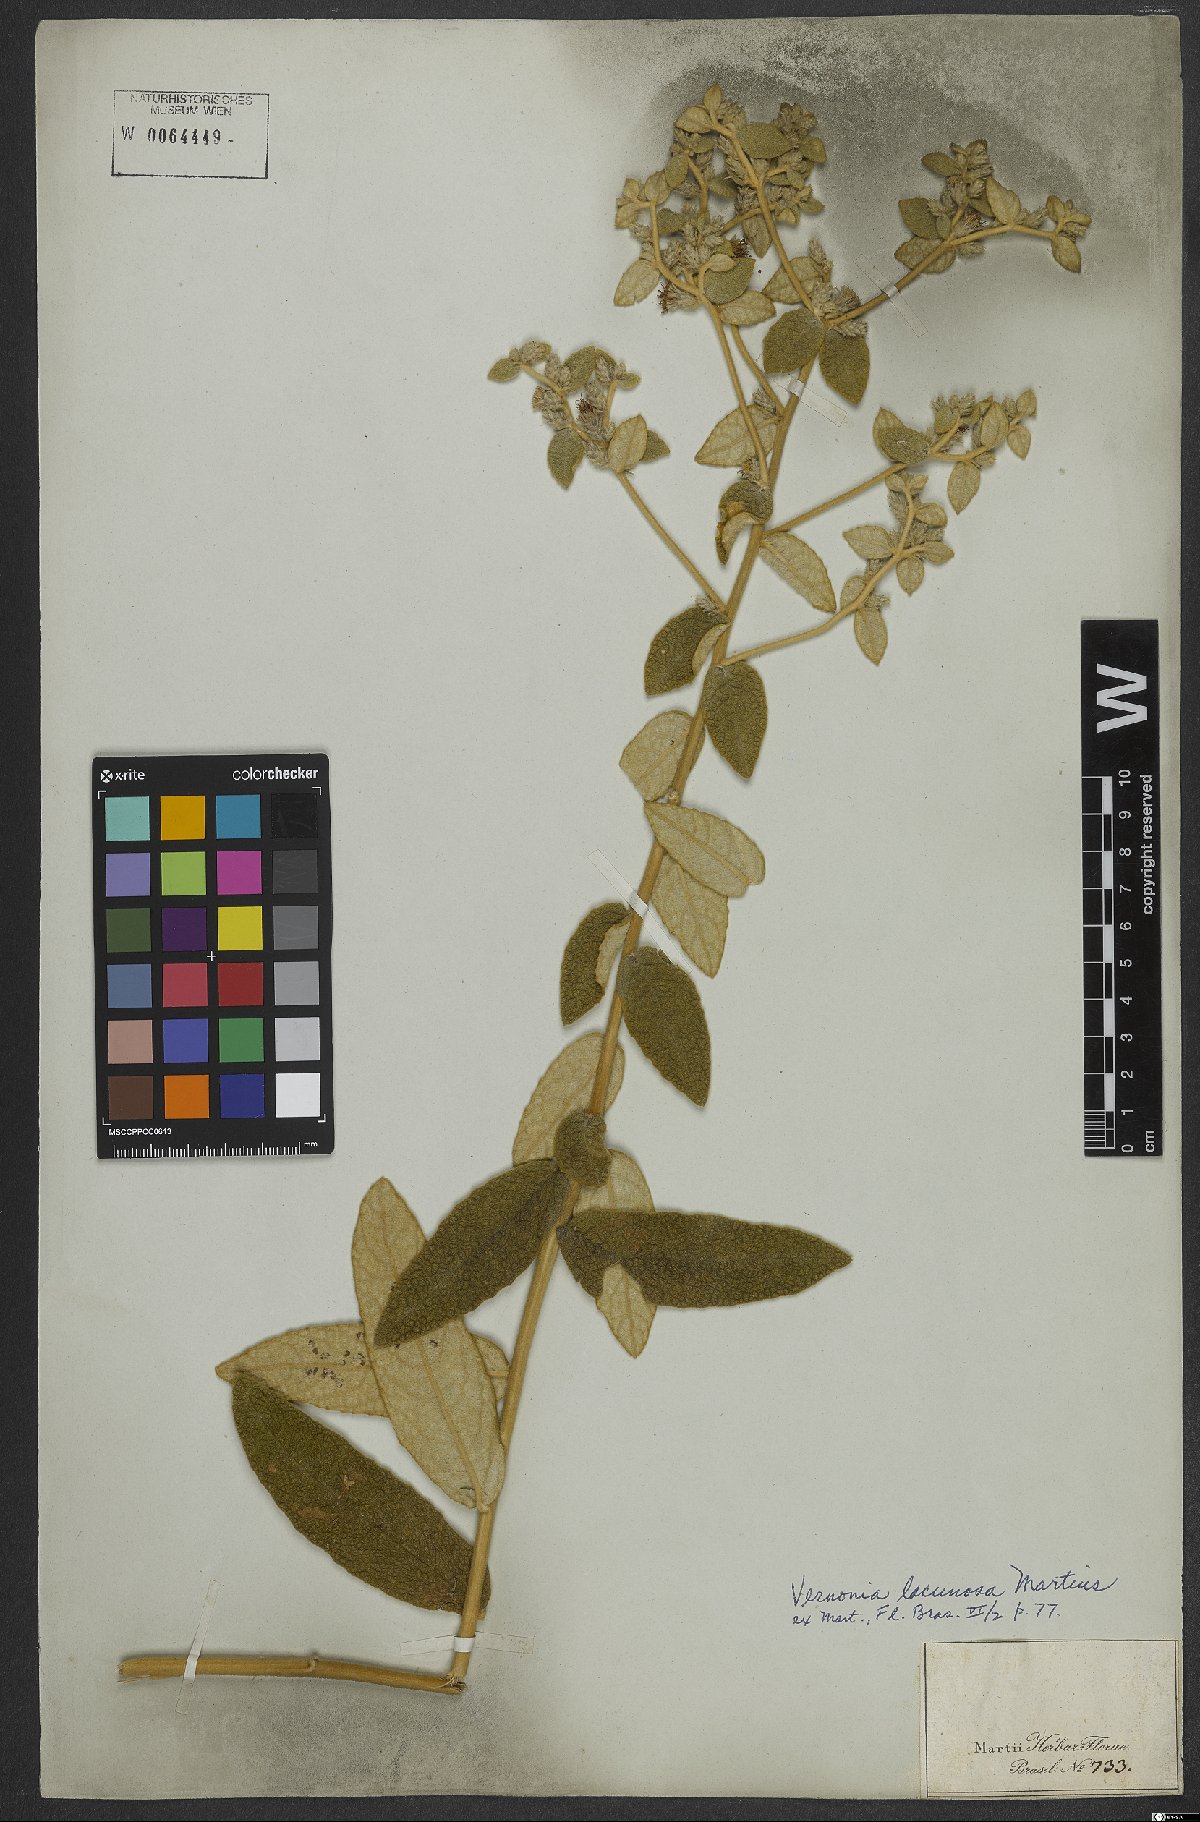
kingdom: Plantae
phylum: Tracheophyta
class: Magnoliopsida
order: Asterales
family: Asteraceae
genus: Lessingianthus
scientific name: Lessingianthus lacunosus
